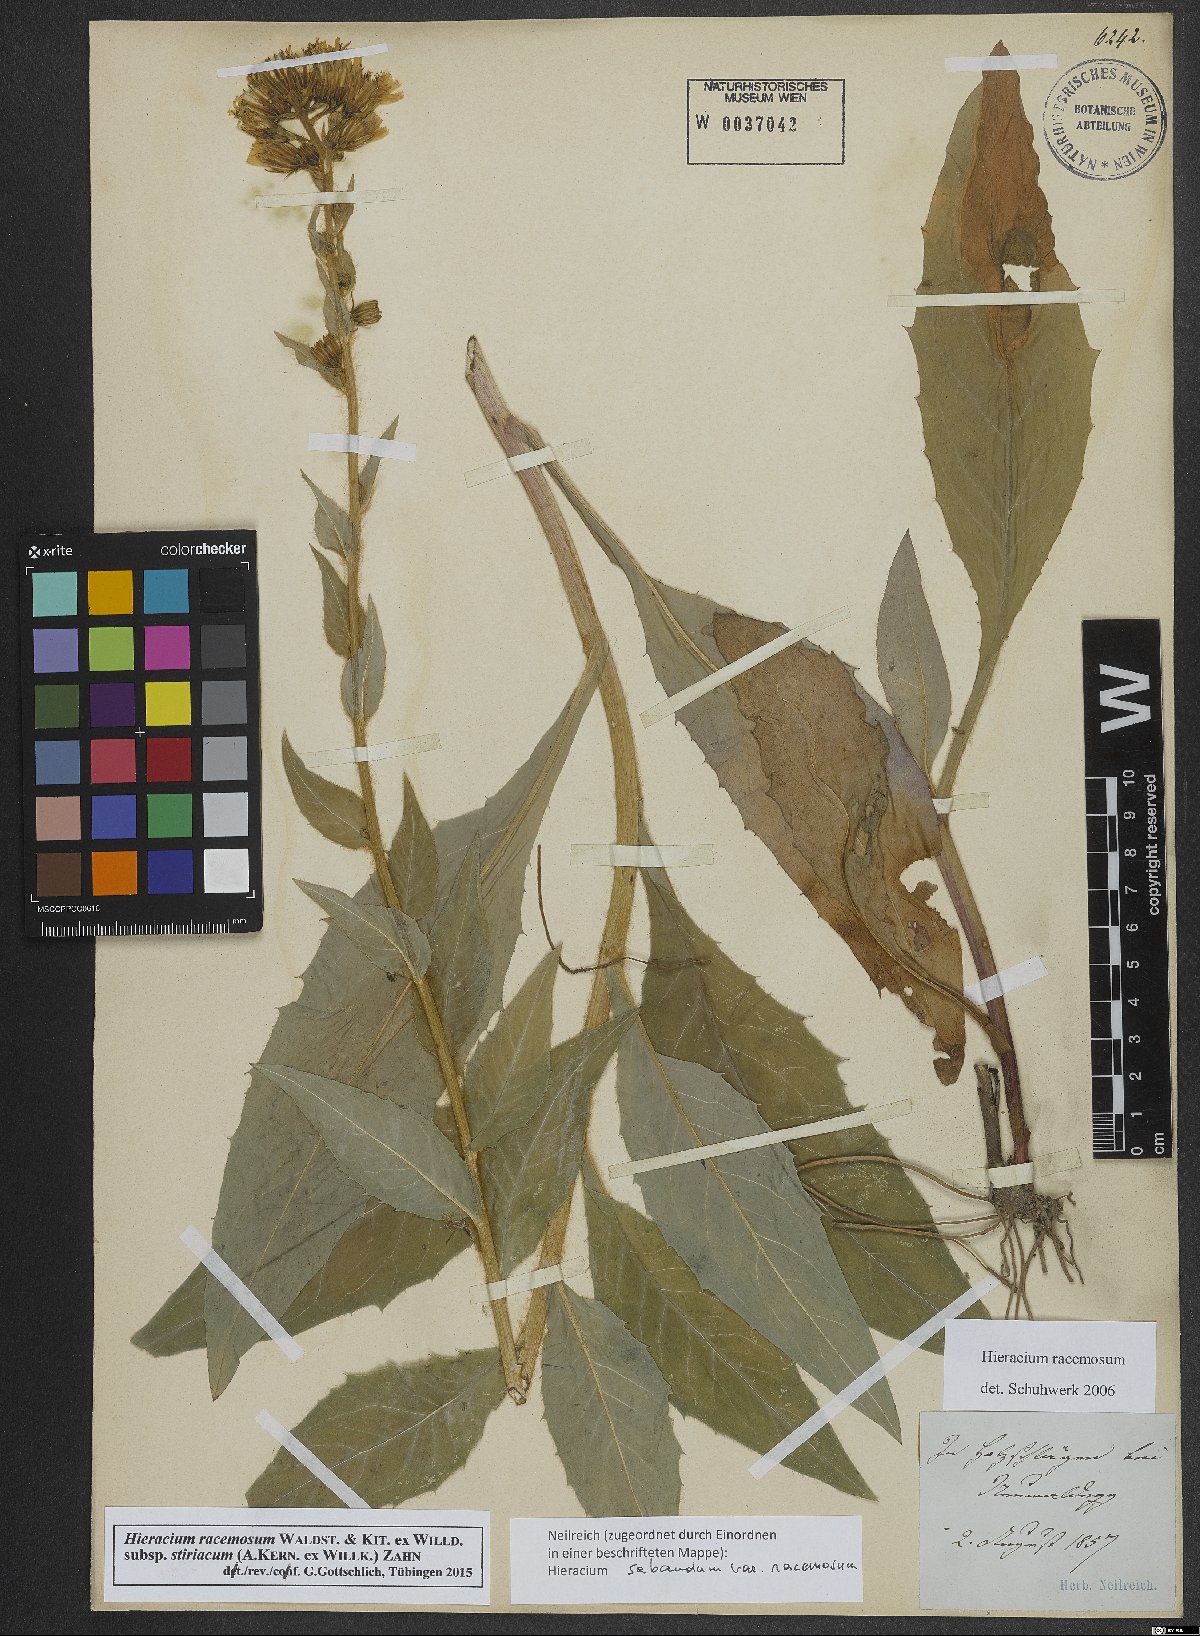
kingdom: Plantae
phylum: Tracheophyta
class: Magnoliopsida
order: Asterales
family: Asteraceae
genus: Hieracium
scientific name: Hieracium racemosum
